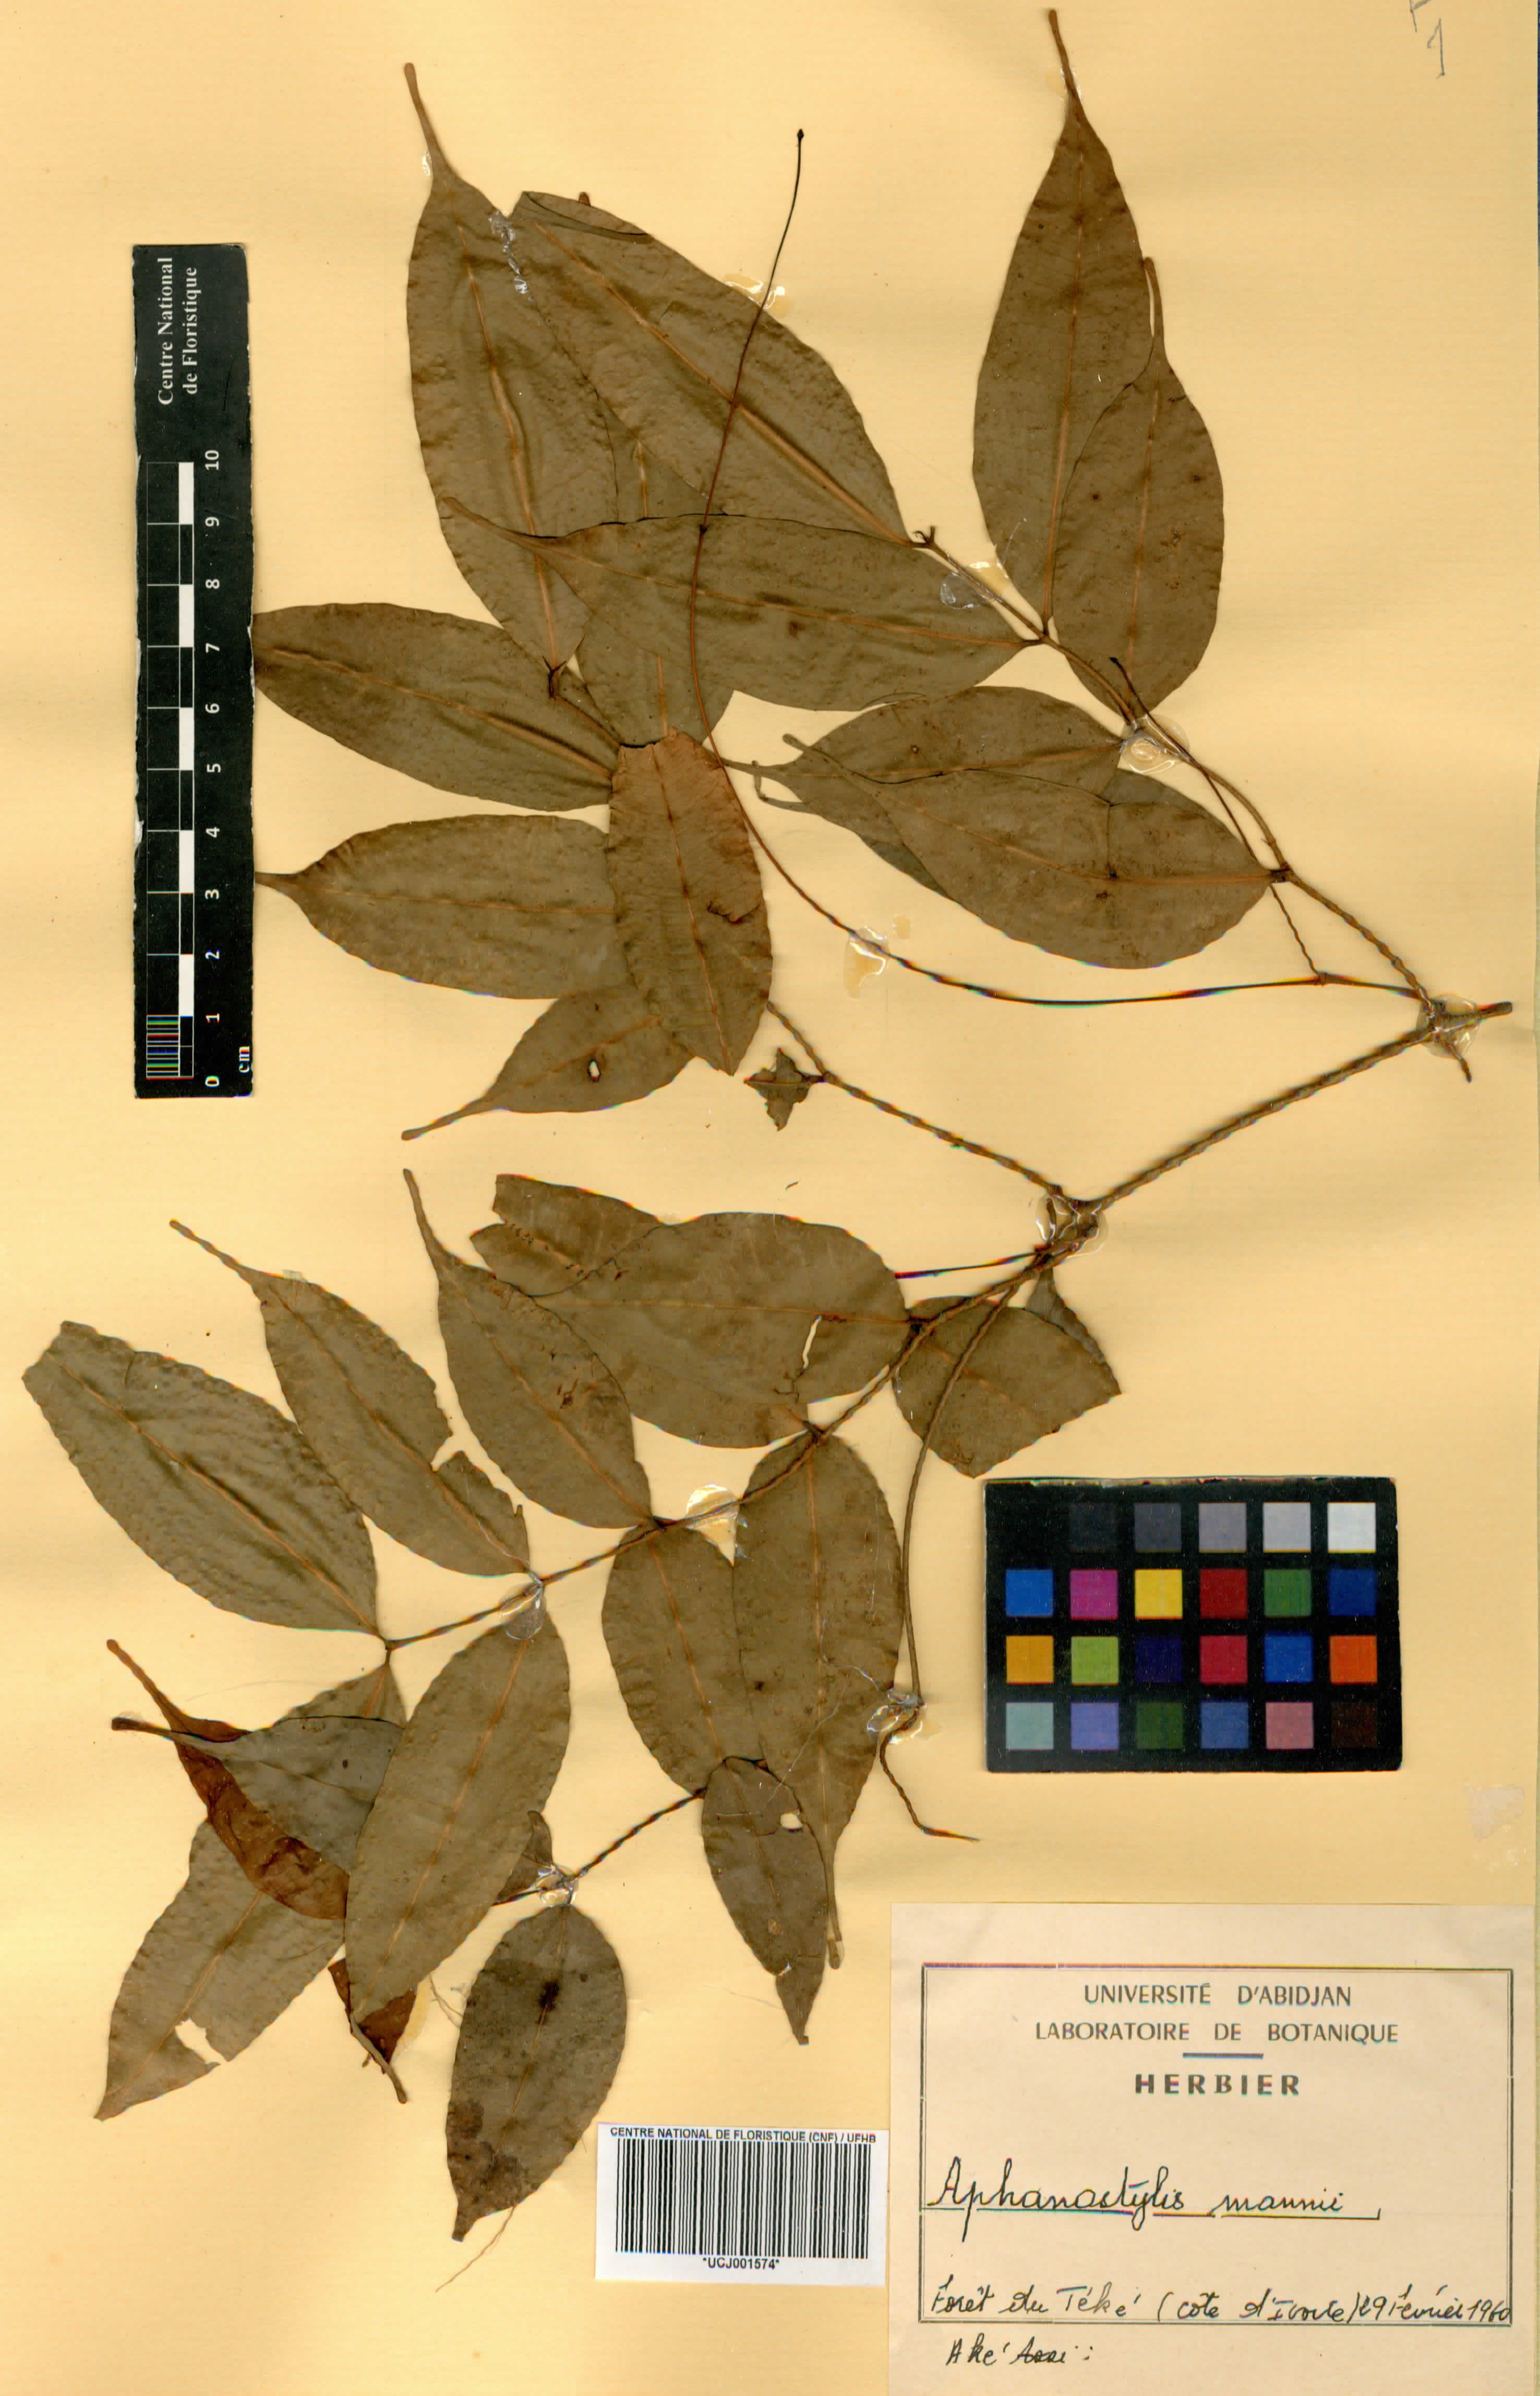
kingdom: Plantae
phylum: Tracheophyta
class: Magnoliopsida
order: Gentianales
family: Apocynaceae
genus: Landolphia
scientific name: Landolphia incerta
